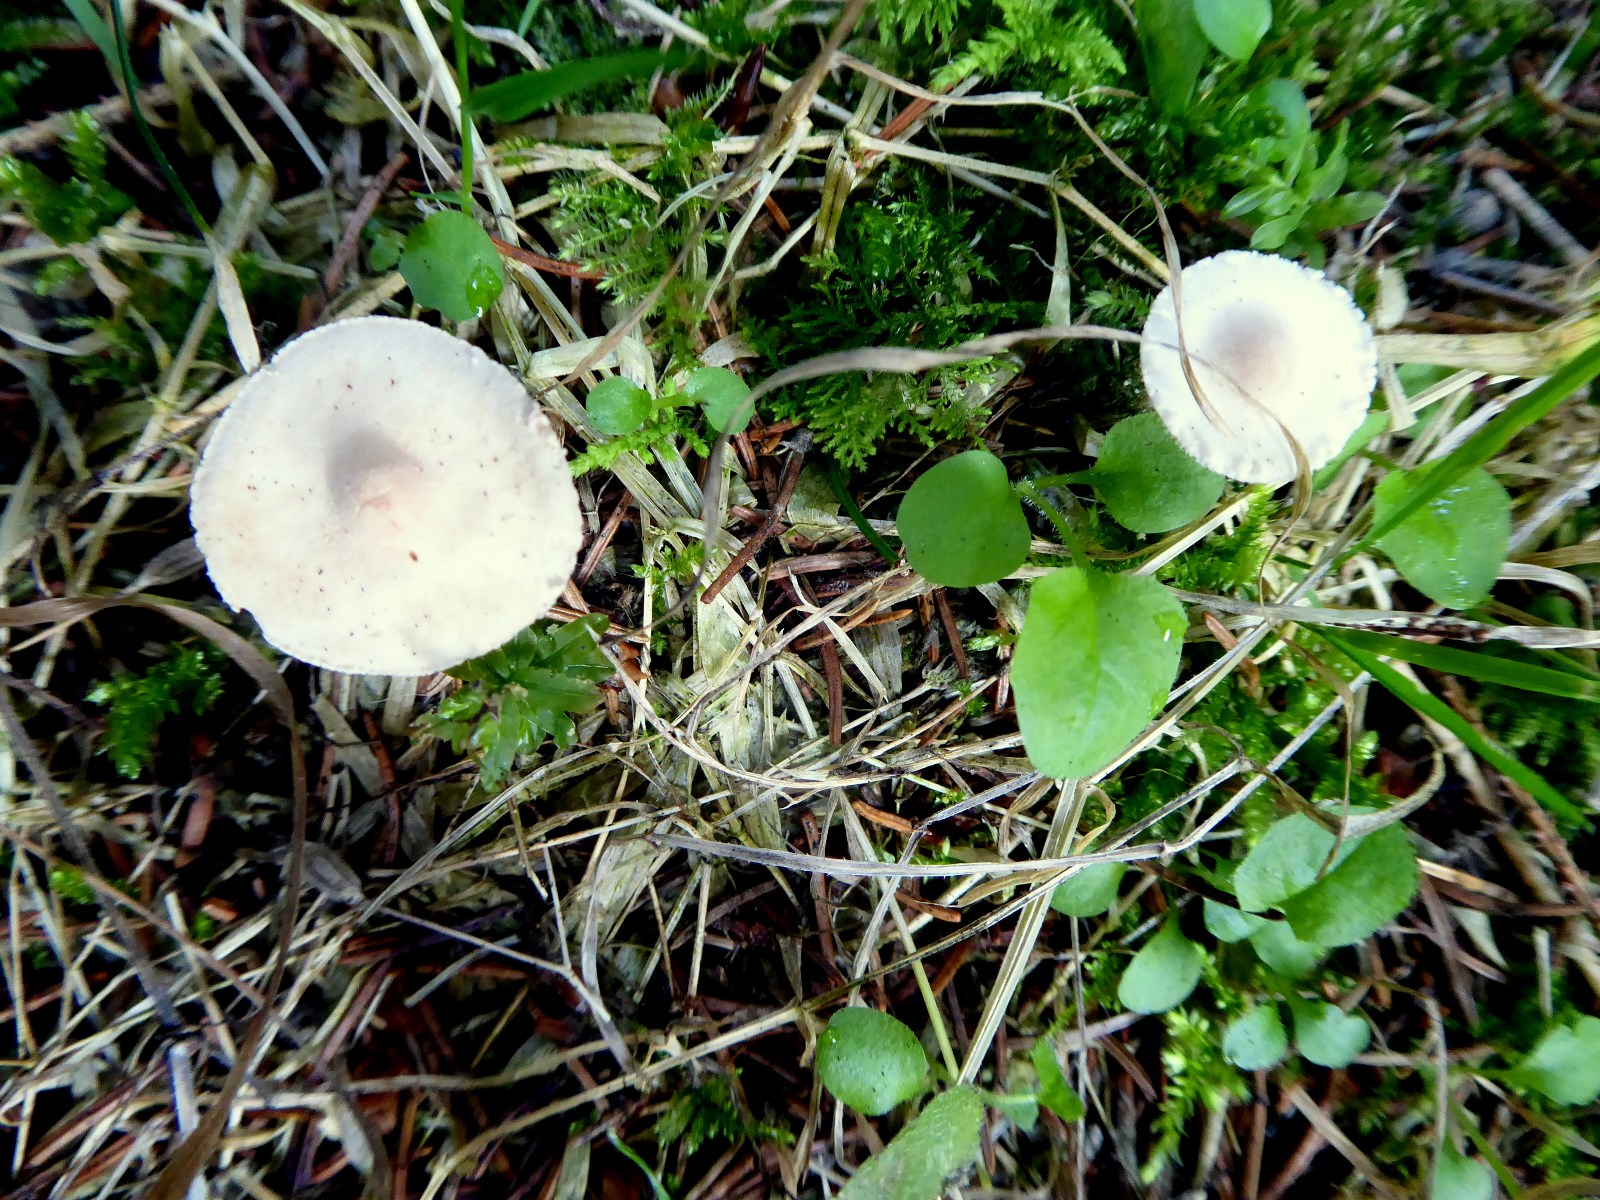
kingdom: Fungi
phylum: Basidiomycota
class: Agaricomycetes
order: Agaricales
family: Agaricaceae
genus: Cystolepiota
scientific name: Cystolepiota seminuda
